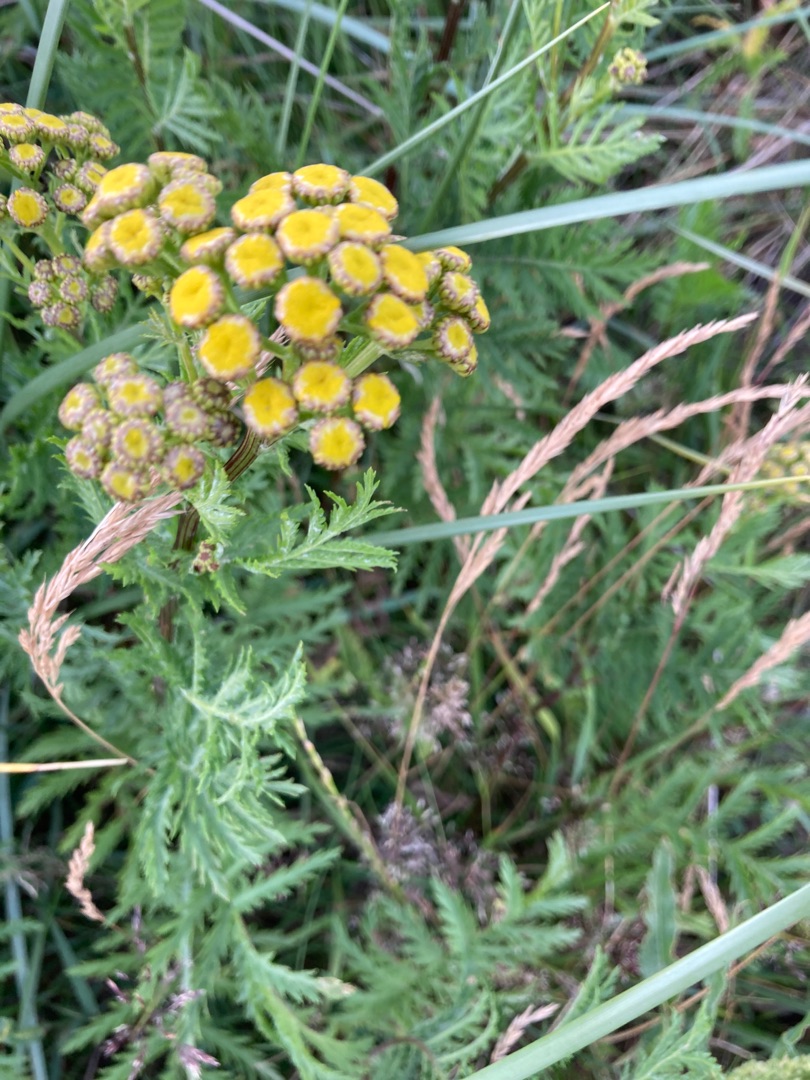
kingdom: Plantae
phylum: Tracheophyta
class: Magnoliopsida
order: Asterales
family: Asteraceae
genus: Tanacetum
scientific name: Tanacetum vulgare
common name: Rejnfan
